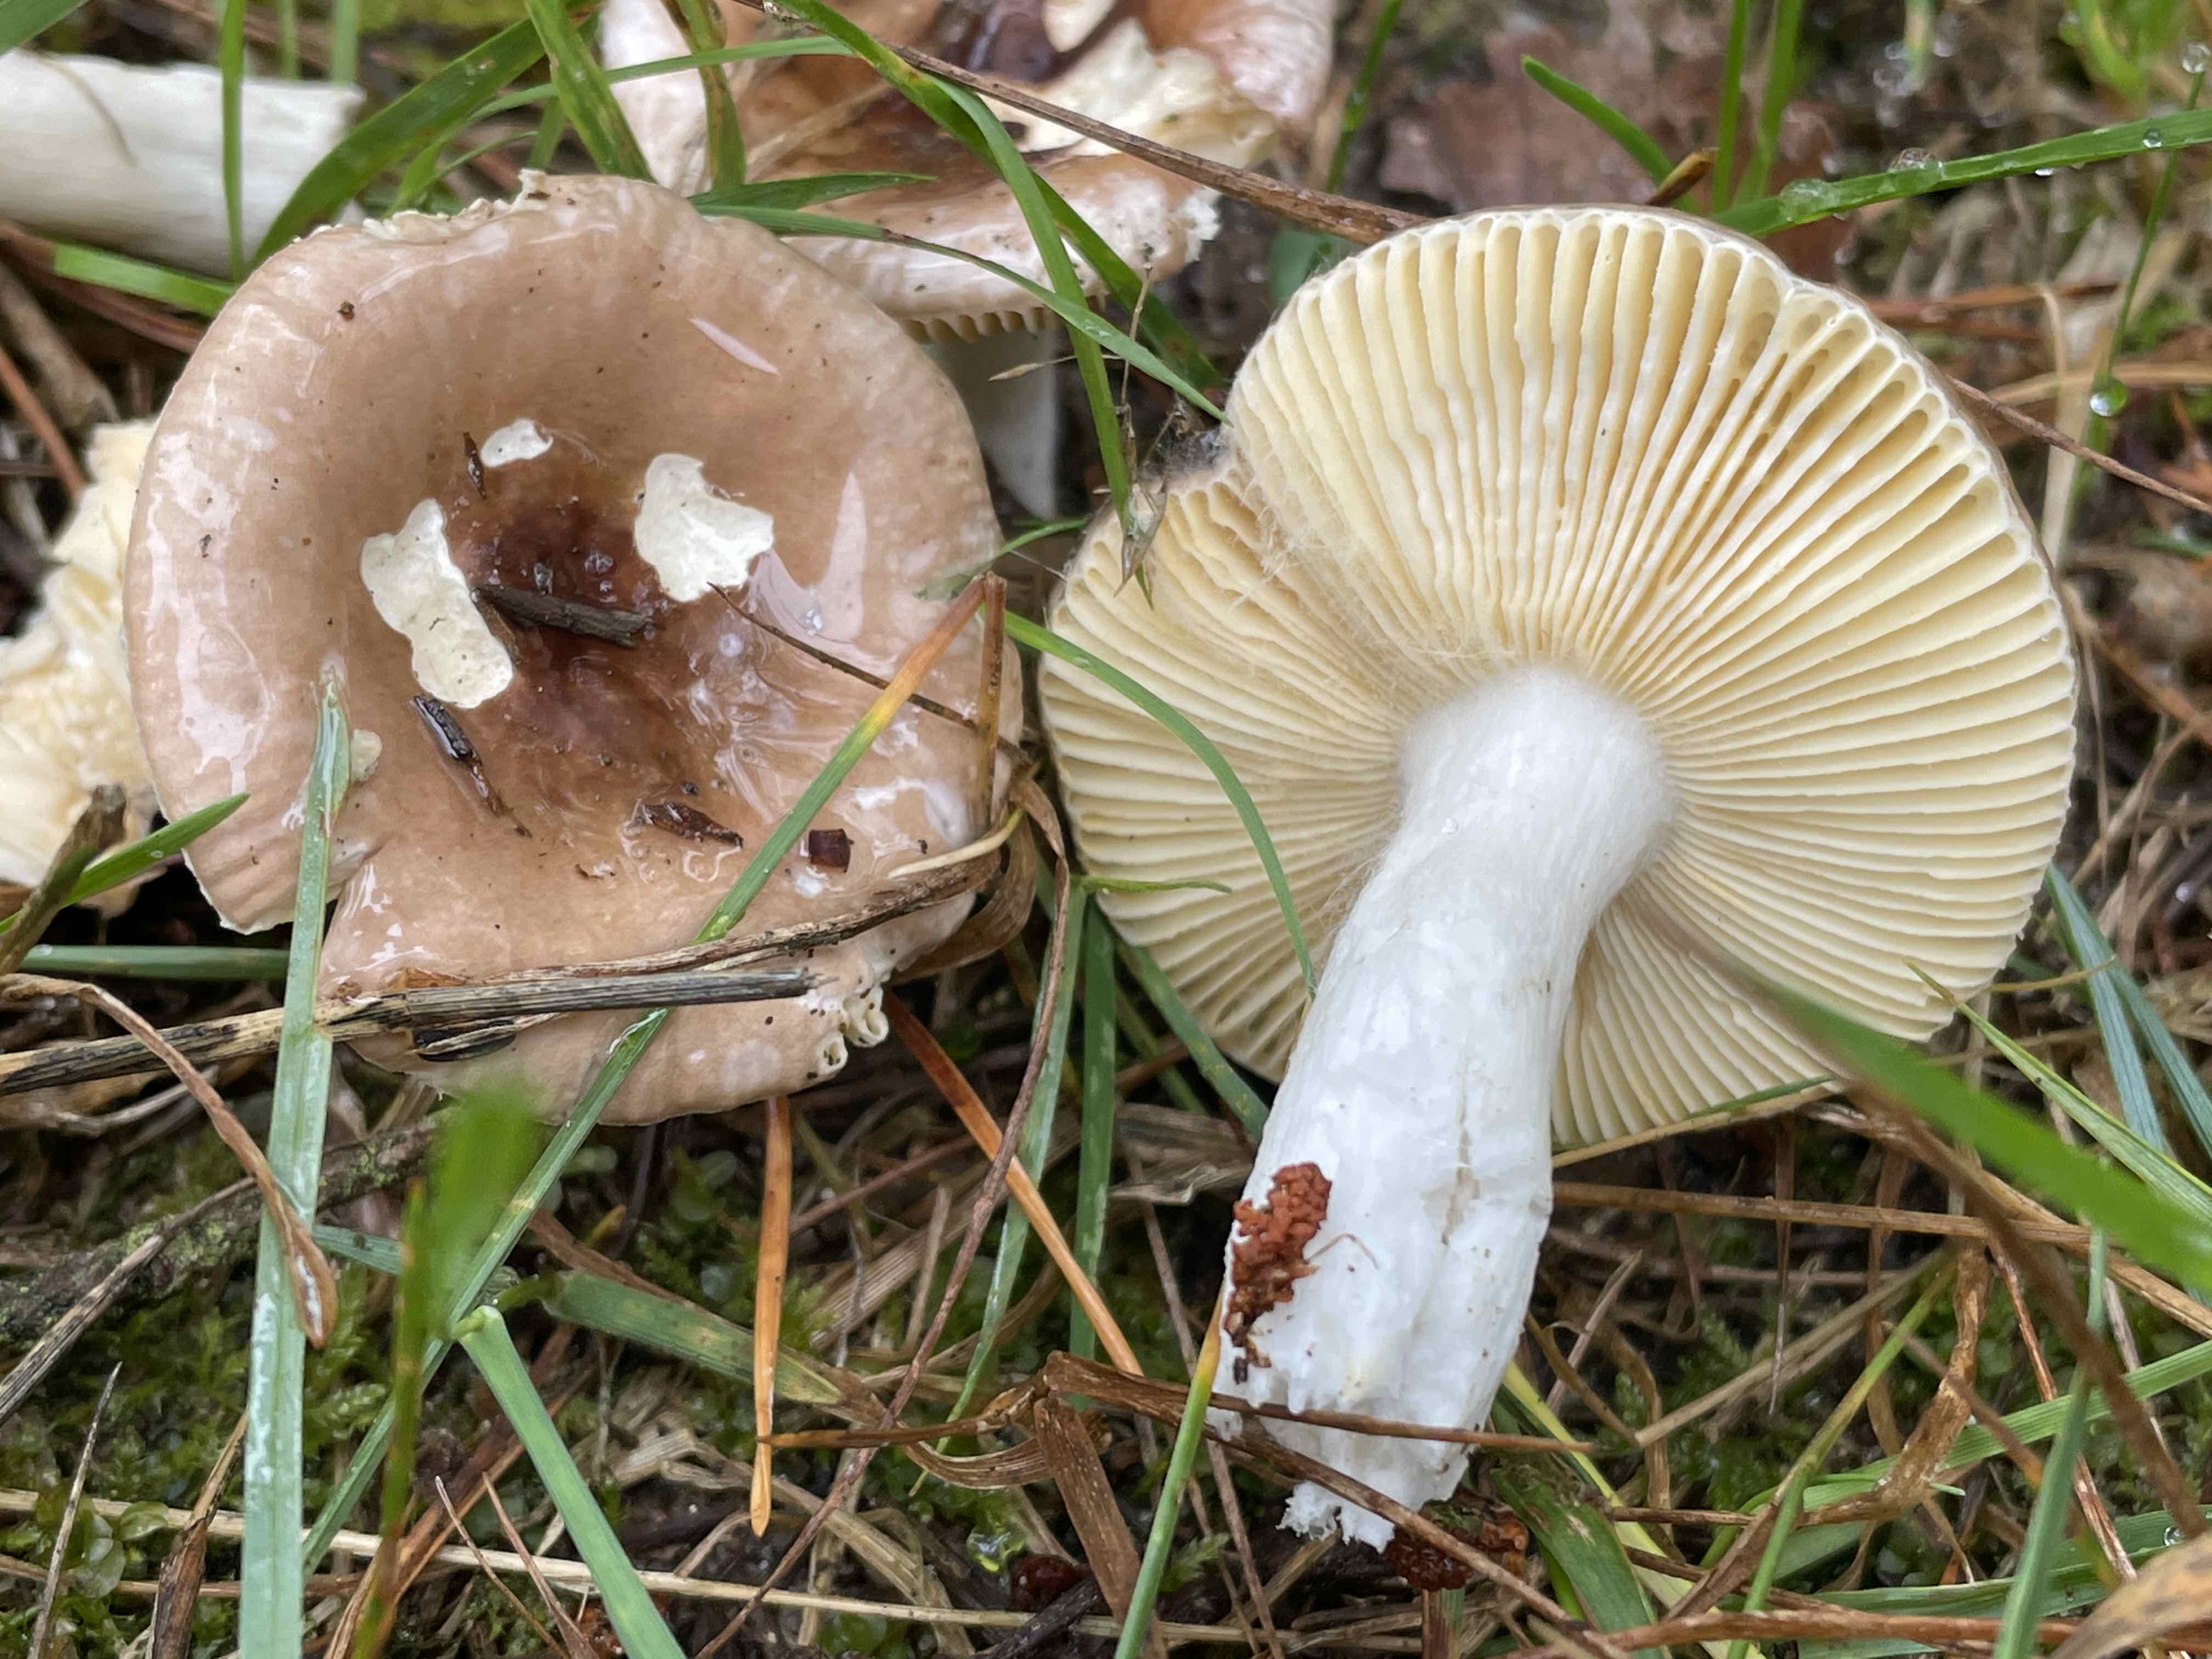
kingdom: Fungi
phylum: Basidiomycota
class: Agaricomycetes
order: Russulales
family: Russulaceae
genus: Russula
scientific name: Russula cessans
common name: fyrre-skørhat
